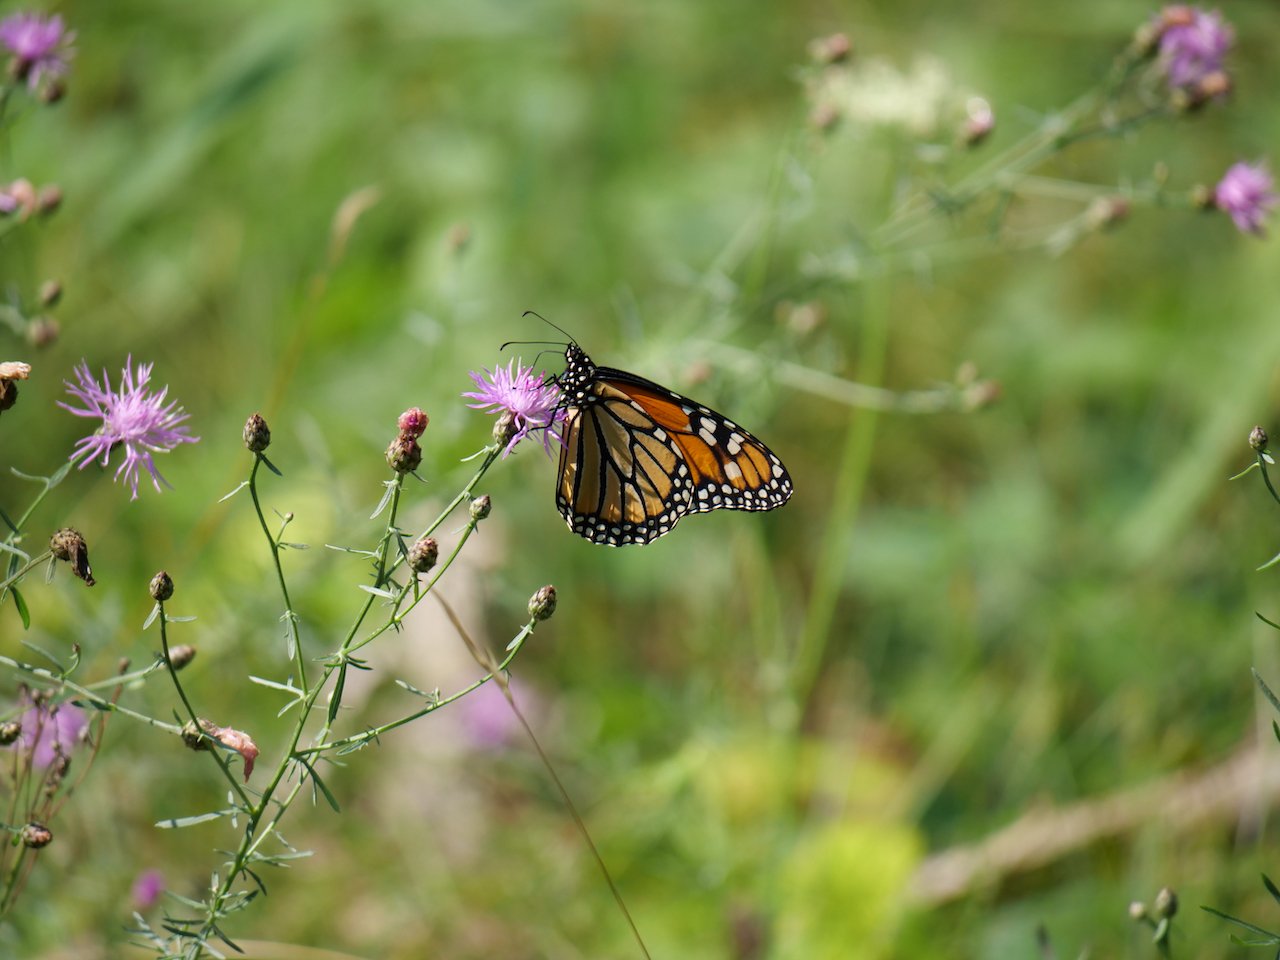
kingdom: Animalia
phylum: Arthropoda
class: Insecta
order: Lepidoptera
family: Nymphalidae
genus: Danaus
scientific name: Danaus plexippus
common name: Monarch
